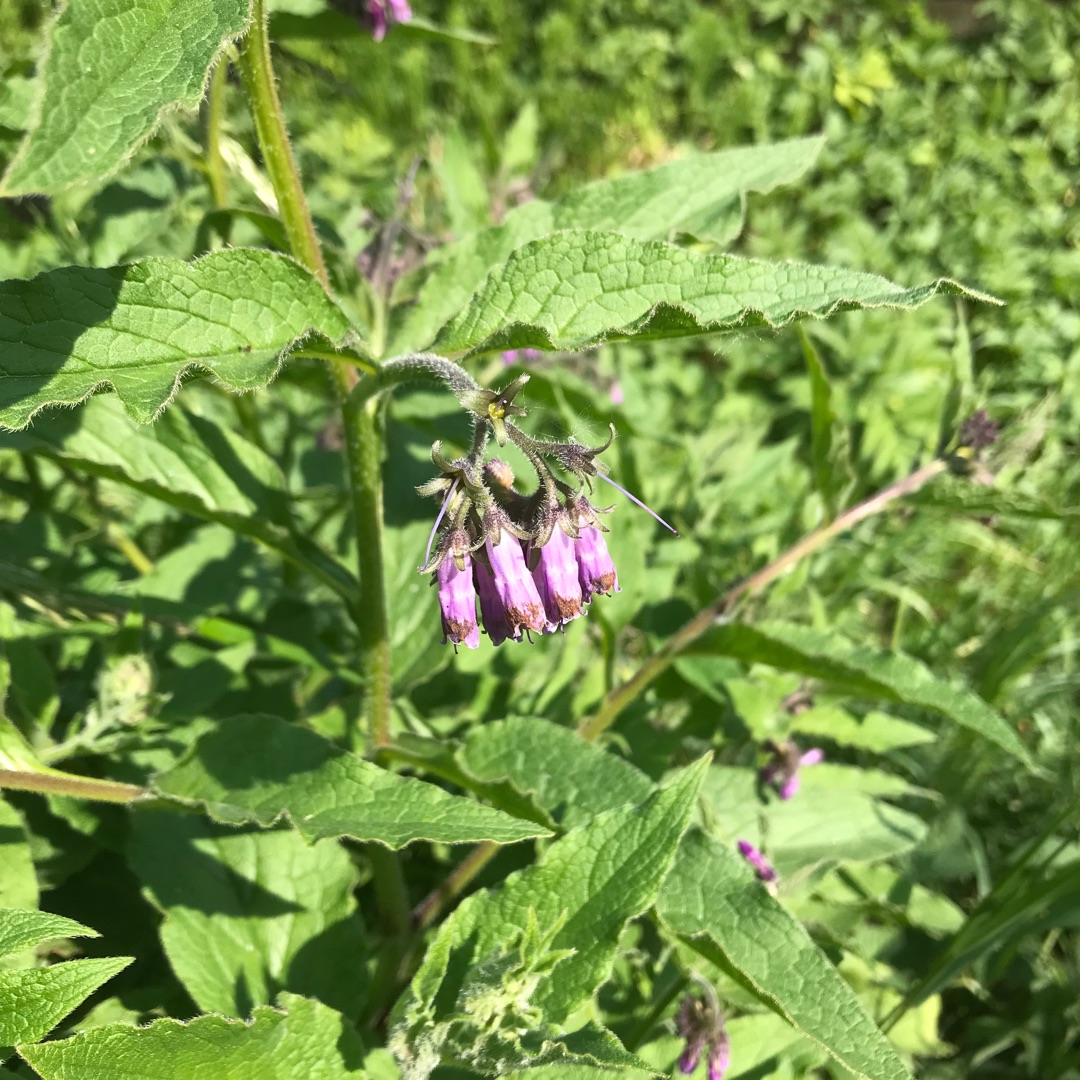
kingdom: Plantae
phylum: Tracheophyta
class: Magnoliopsida
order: Boraginales
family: Boraginaceae
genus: Symphytum
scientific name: Symphytum uplandicum
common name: Foder-kulsukker
